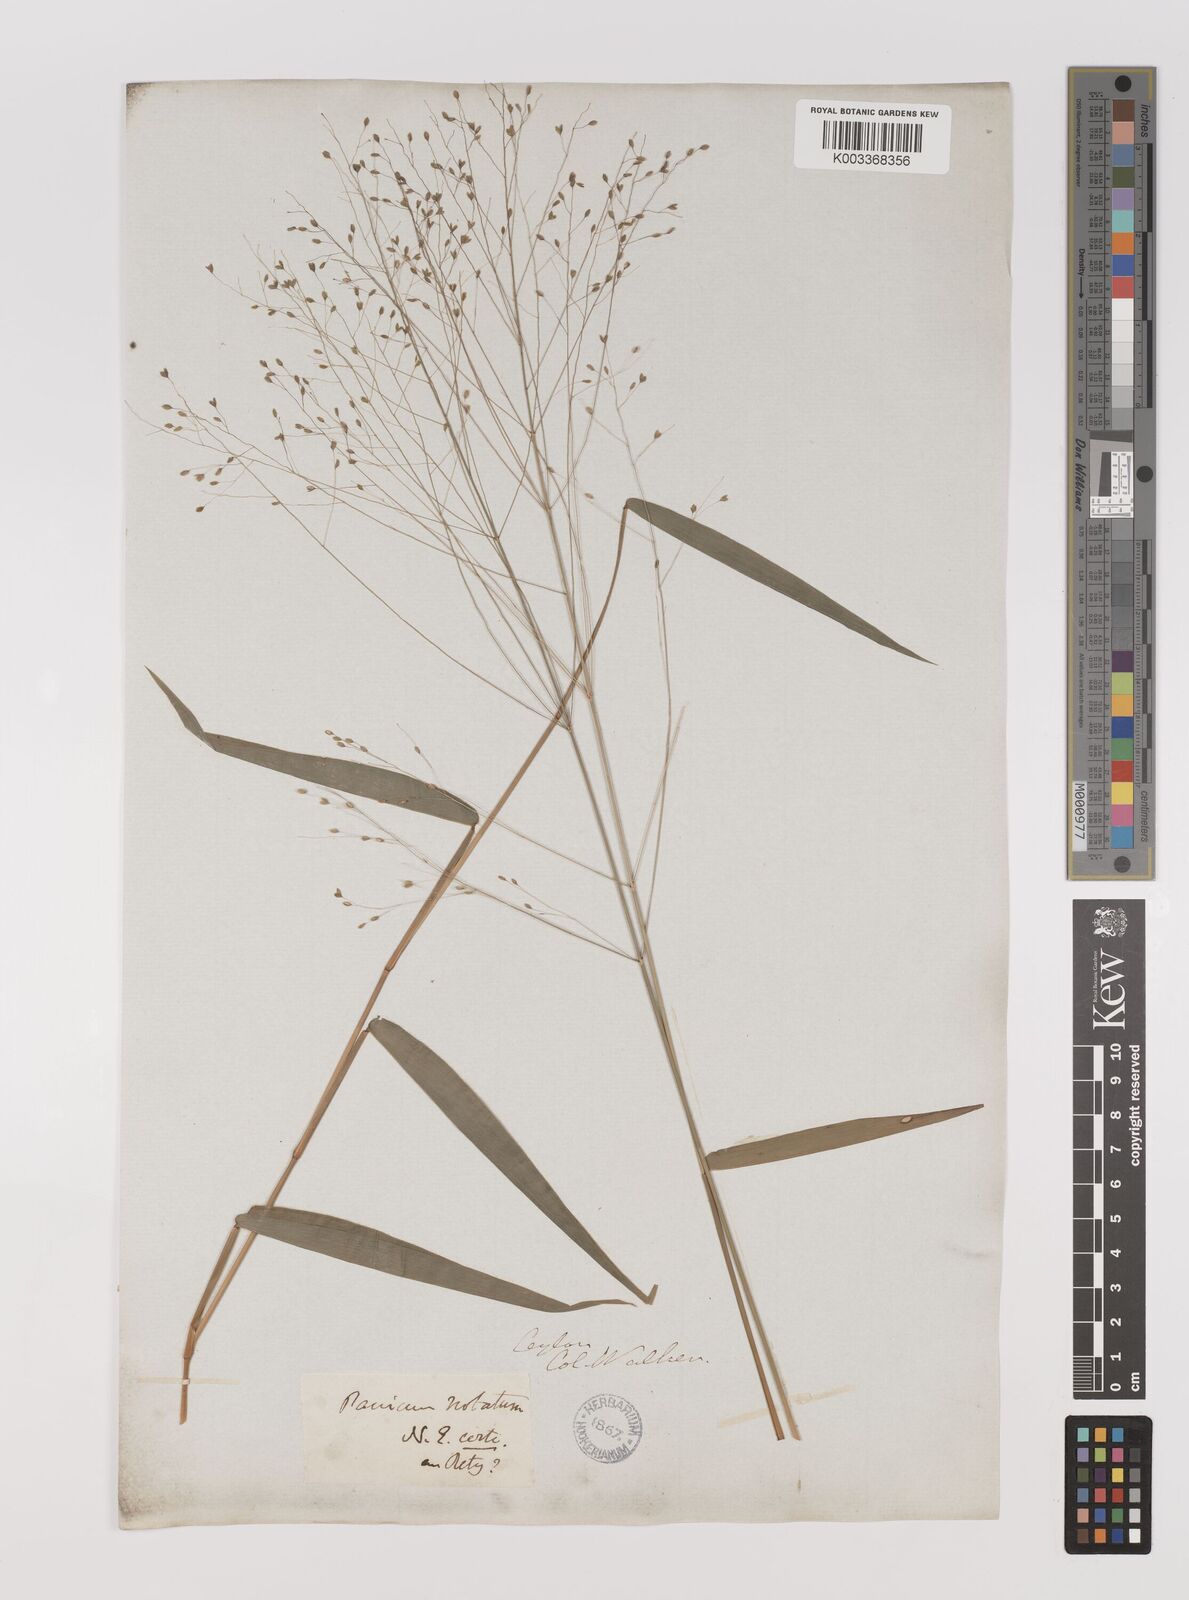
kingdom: Plantae
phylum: Tracheophyta
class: Liliopsida
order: Poales
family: Poaceae
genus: Panicum
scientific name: Panicum notatum
